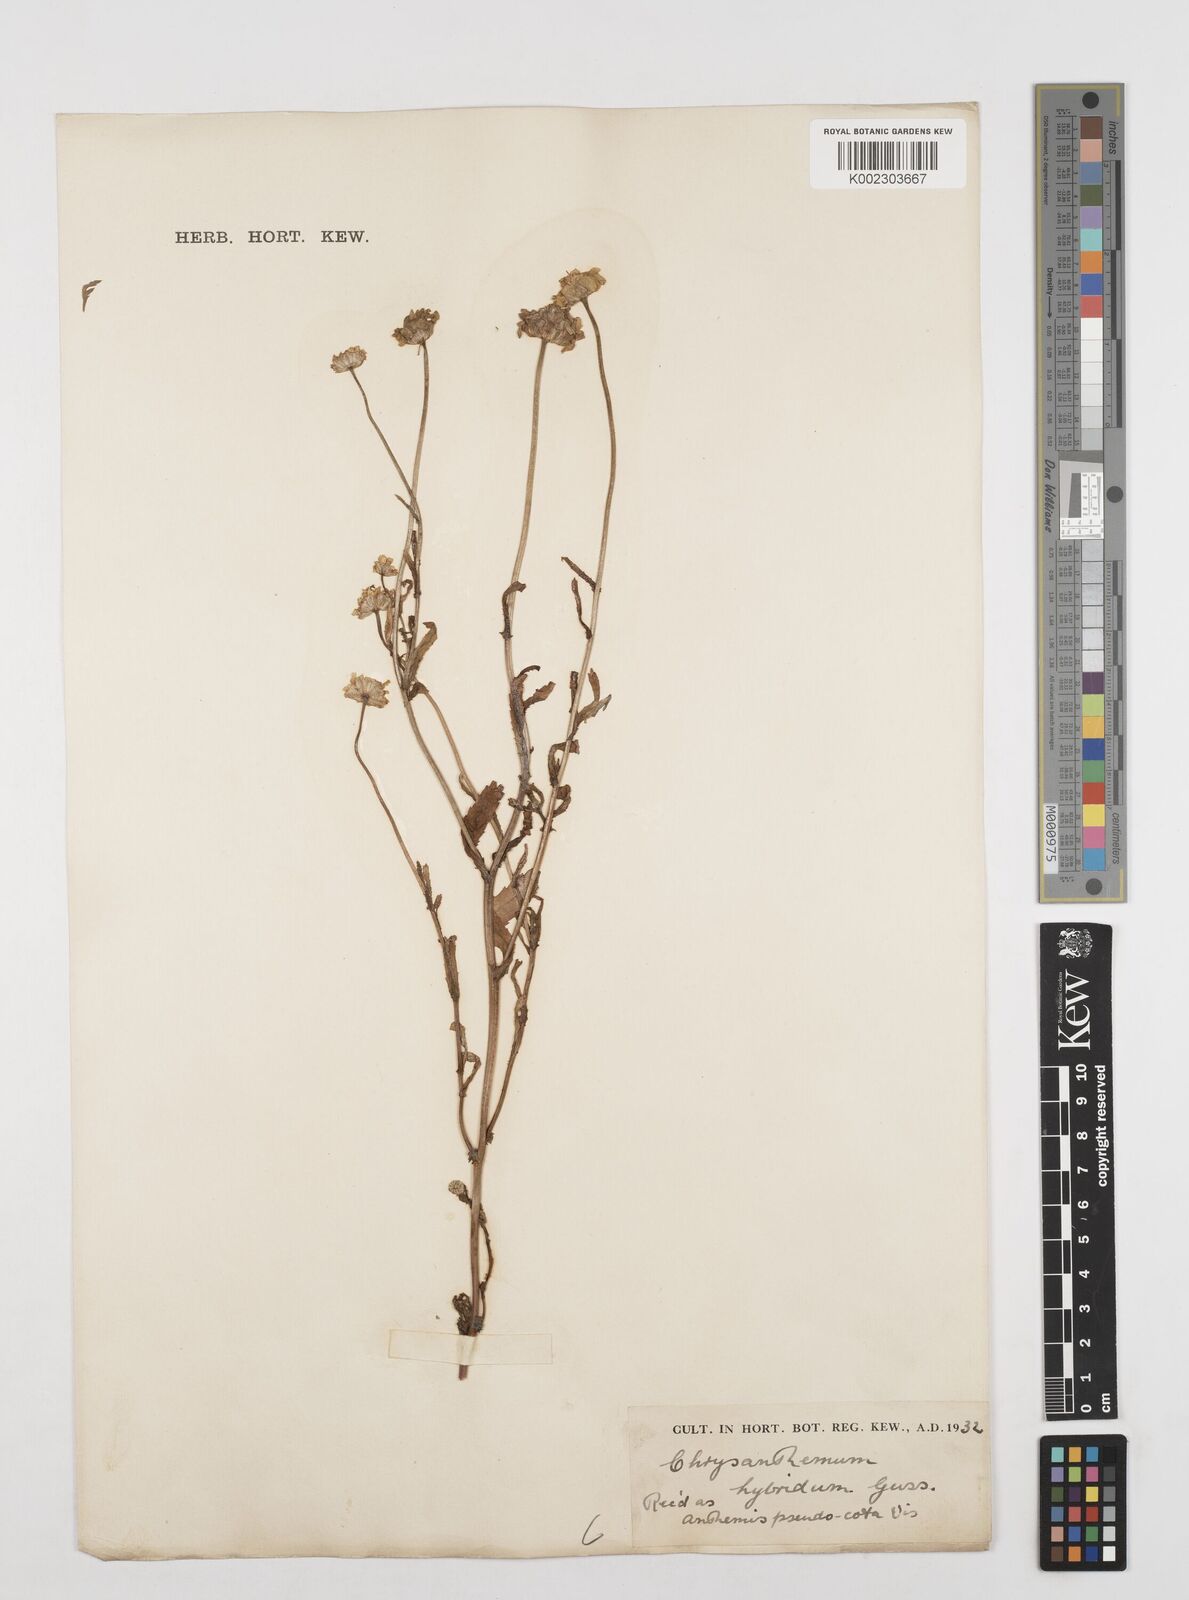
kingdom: Plantae
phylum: Tracheophyta
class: Magnoliopsida
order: Asterales
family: Asteraceae
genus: Tanacetum
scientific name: Tanacetum coccineum
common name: Pyrethum daisy
